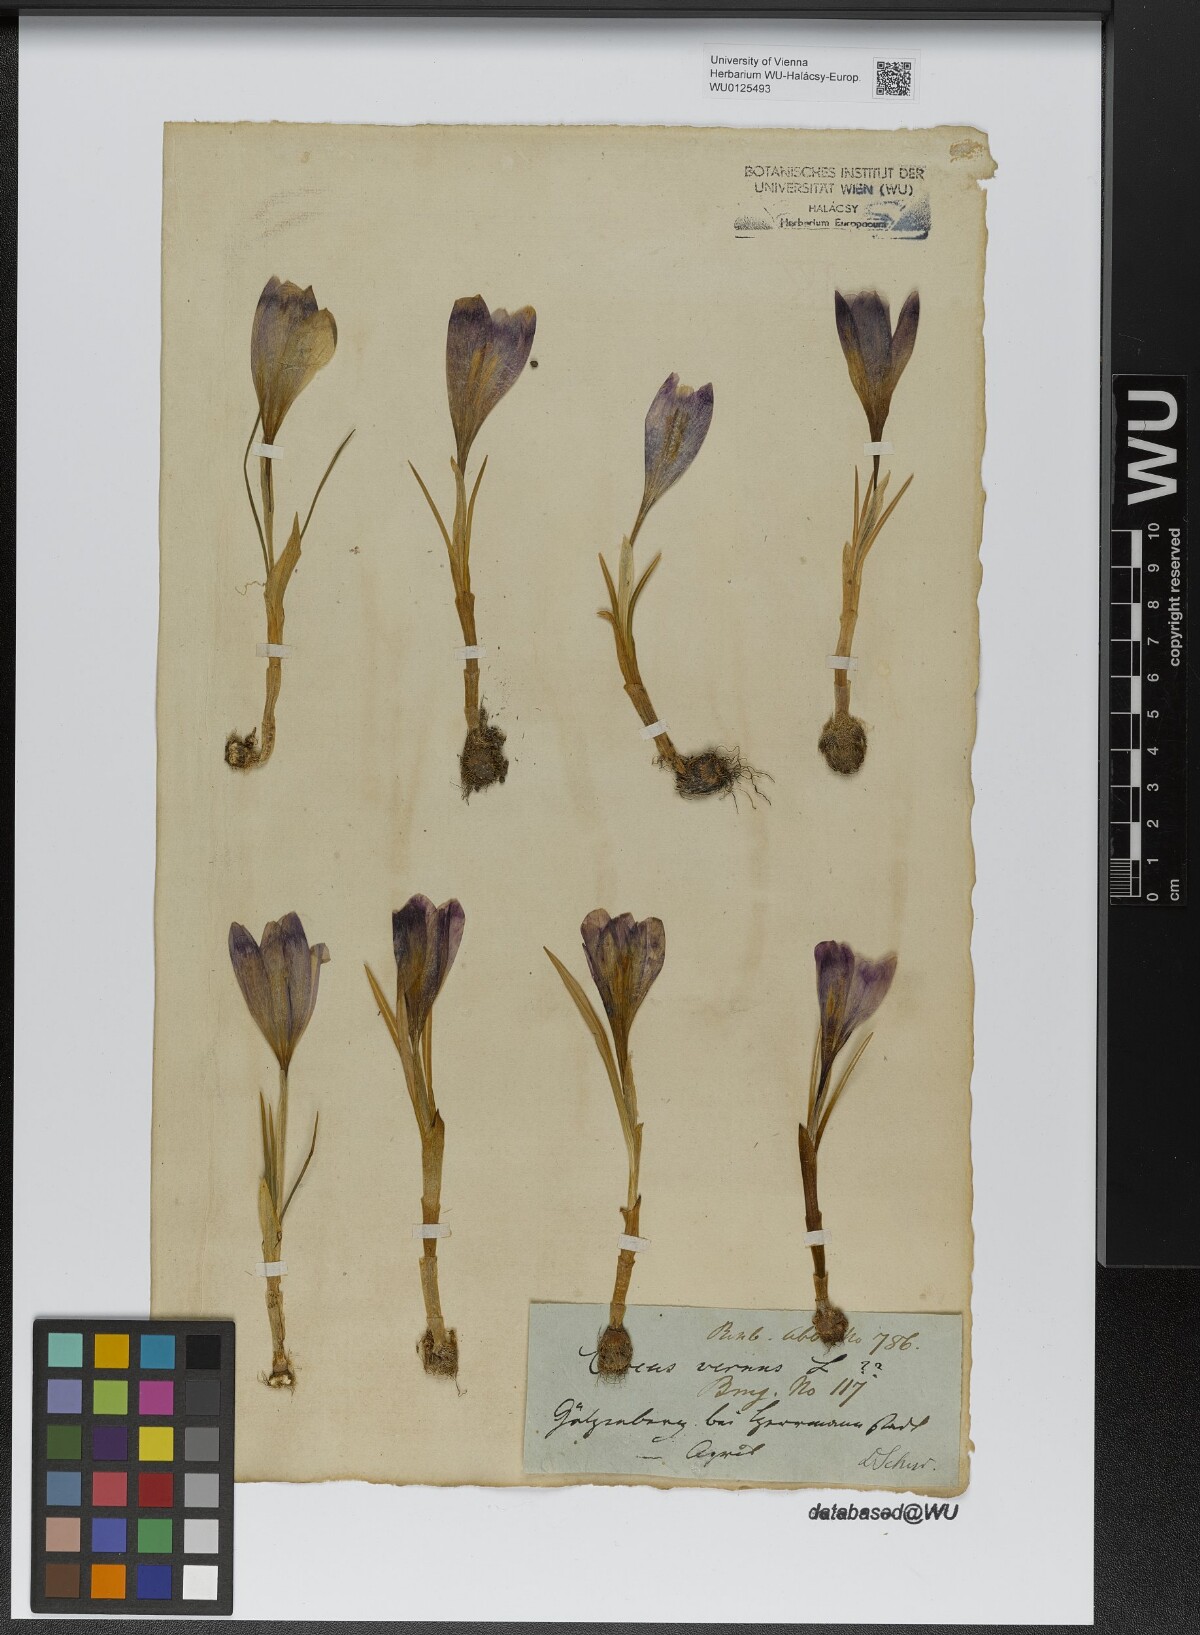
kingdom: Plantae
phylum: Tracheophyta
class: Liliopsida
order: Asparagales
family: Iridaceae
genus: Crocus
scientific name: Crocus vernus
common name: Spring crocus
